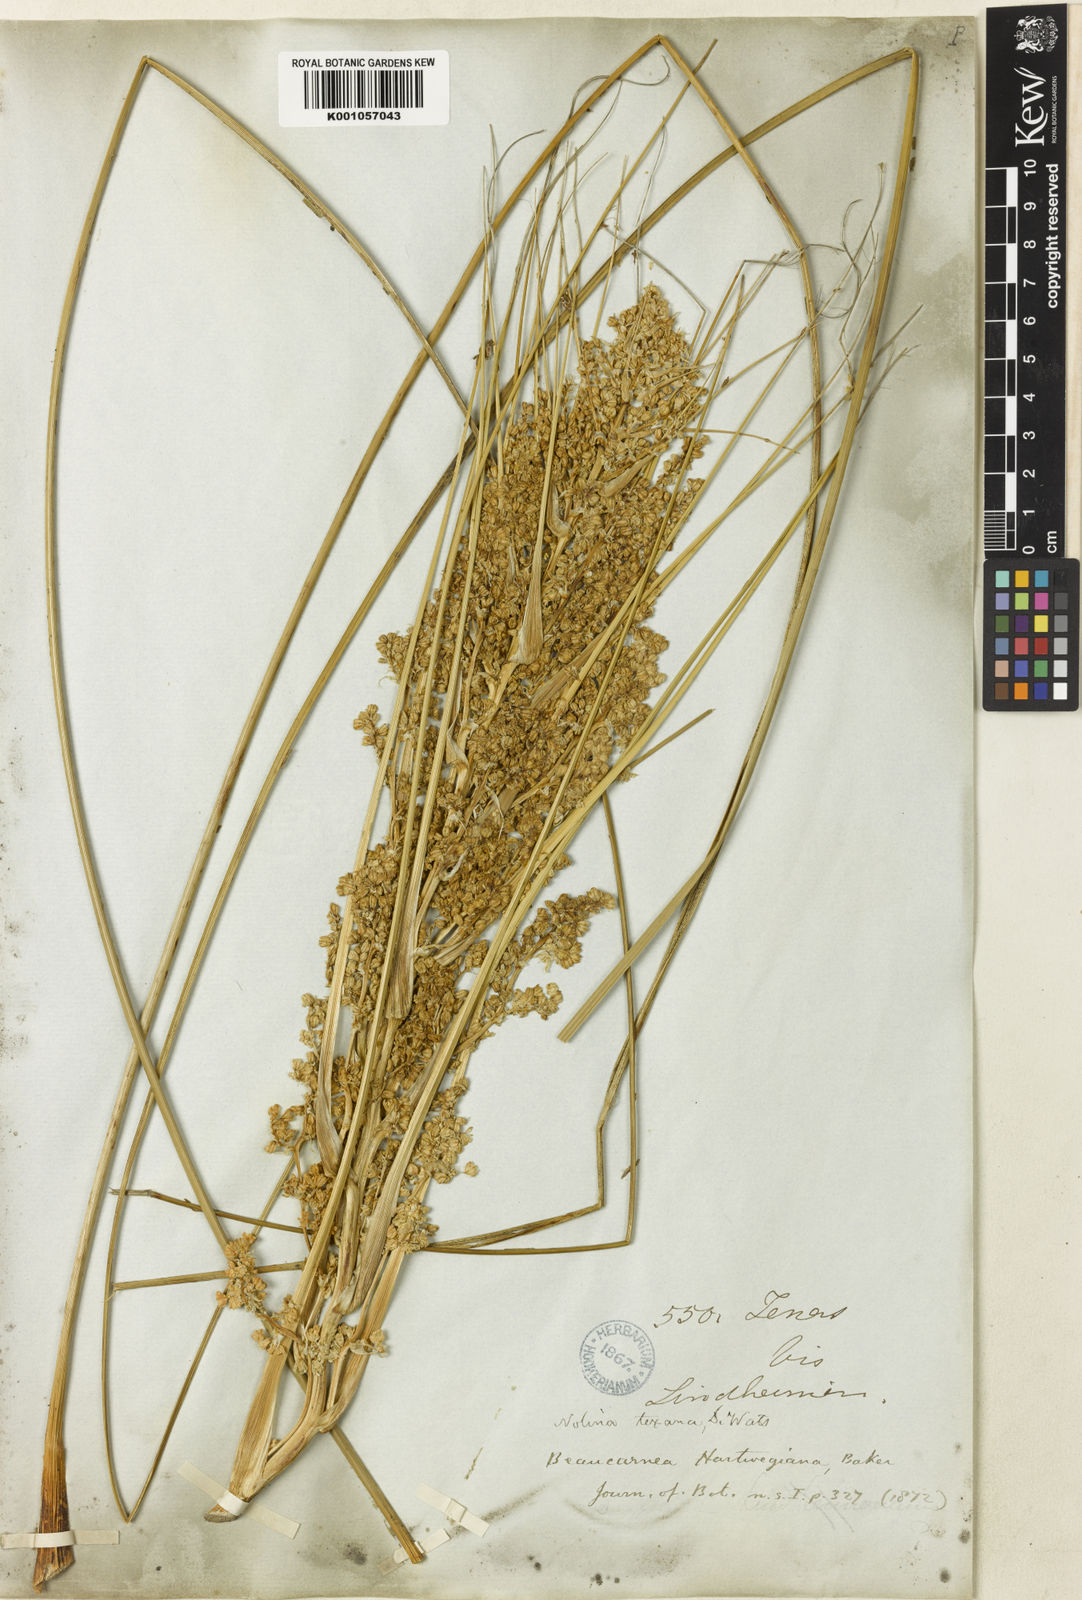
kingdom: Plantae
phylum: Tracheophyta
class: Liliopsida
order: Asparagales
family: Asparagaceae
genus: Nolina
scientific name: Nolina texana
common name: Texas sacahuiste
